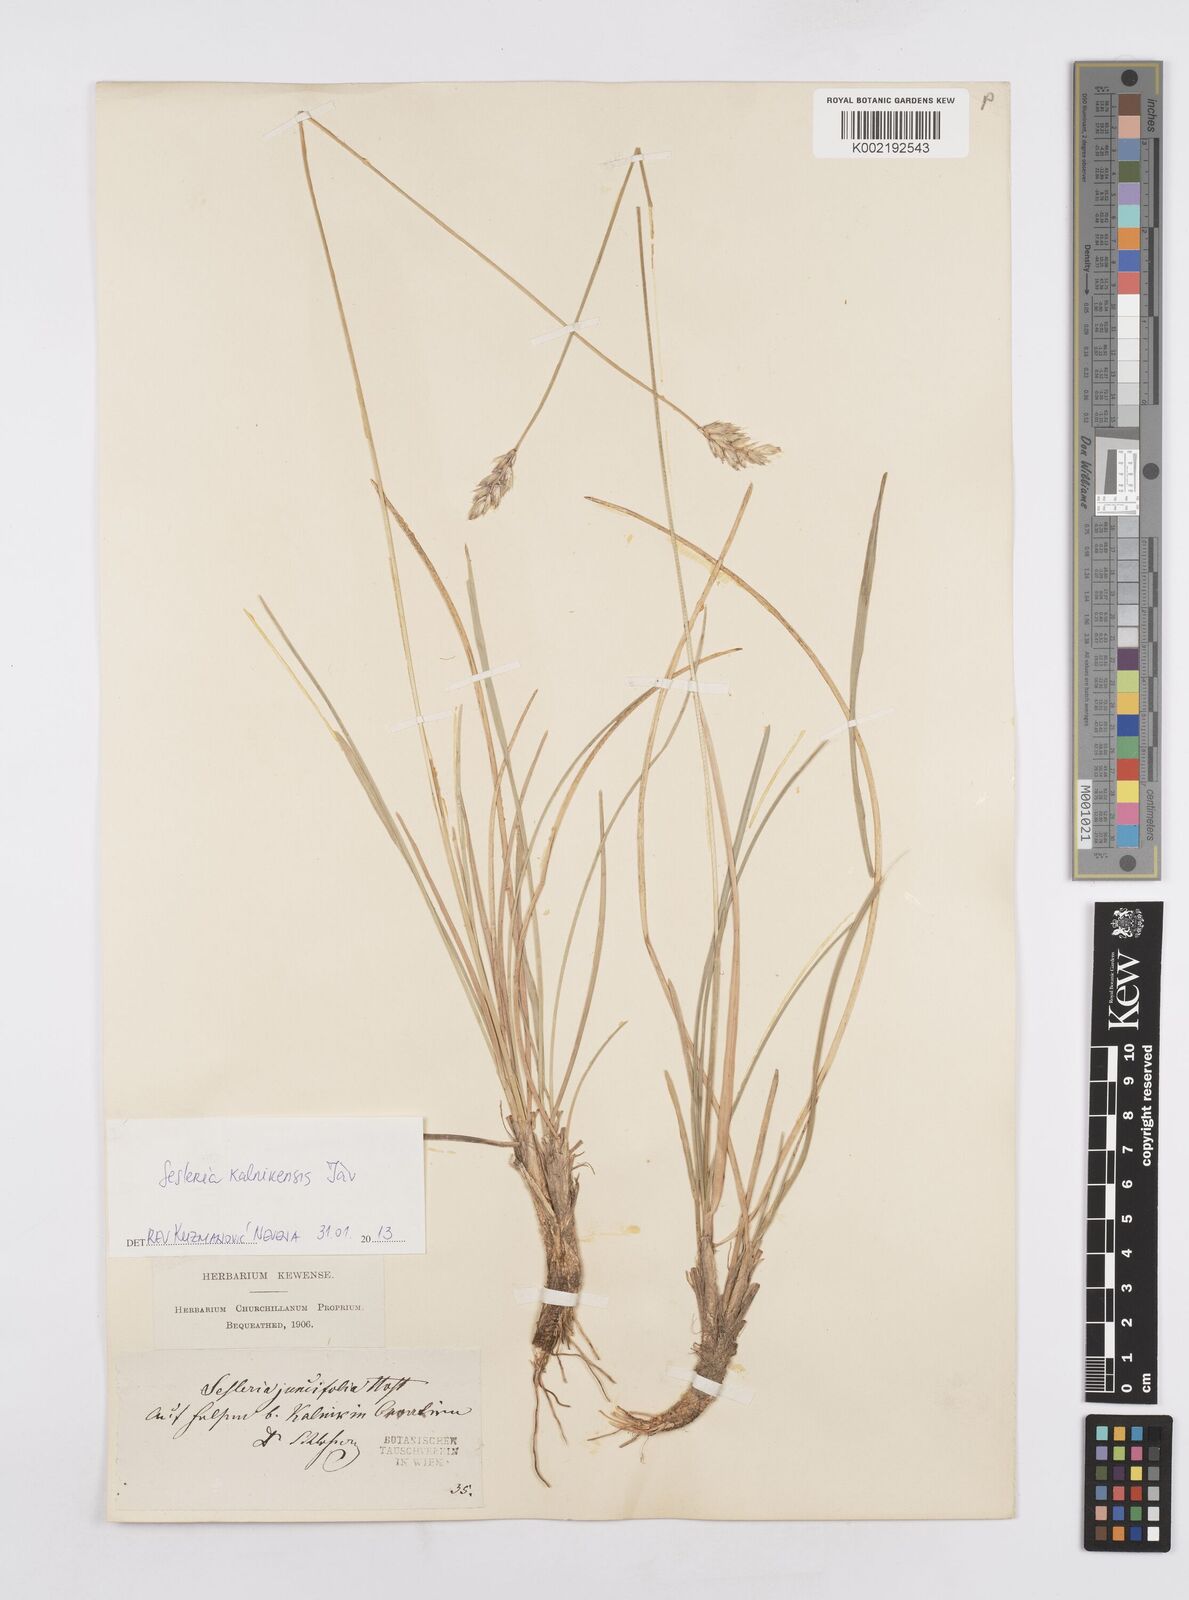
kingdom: Plantae
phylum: Tracheophyta
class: Liliopsida
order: Poales
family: Poaceae
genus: Sesleria
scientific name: Sesleria juncifolia
